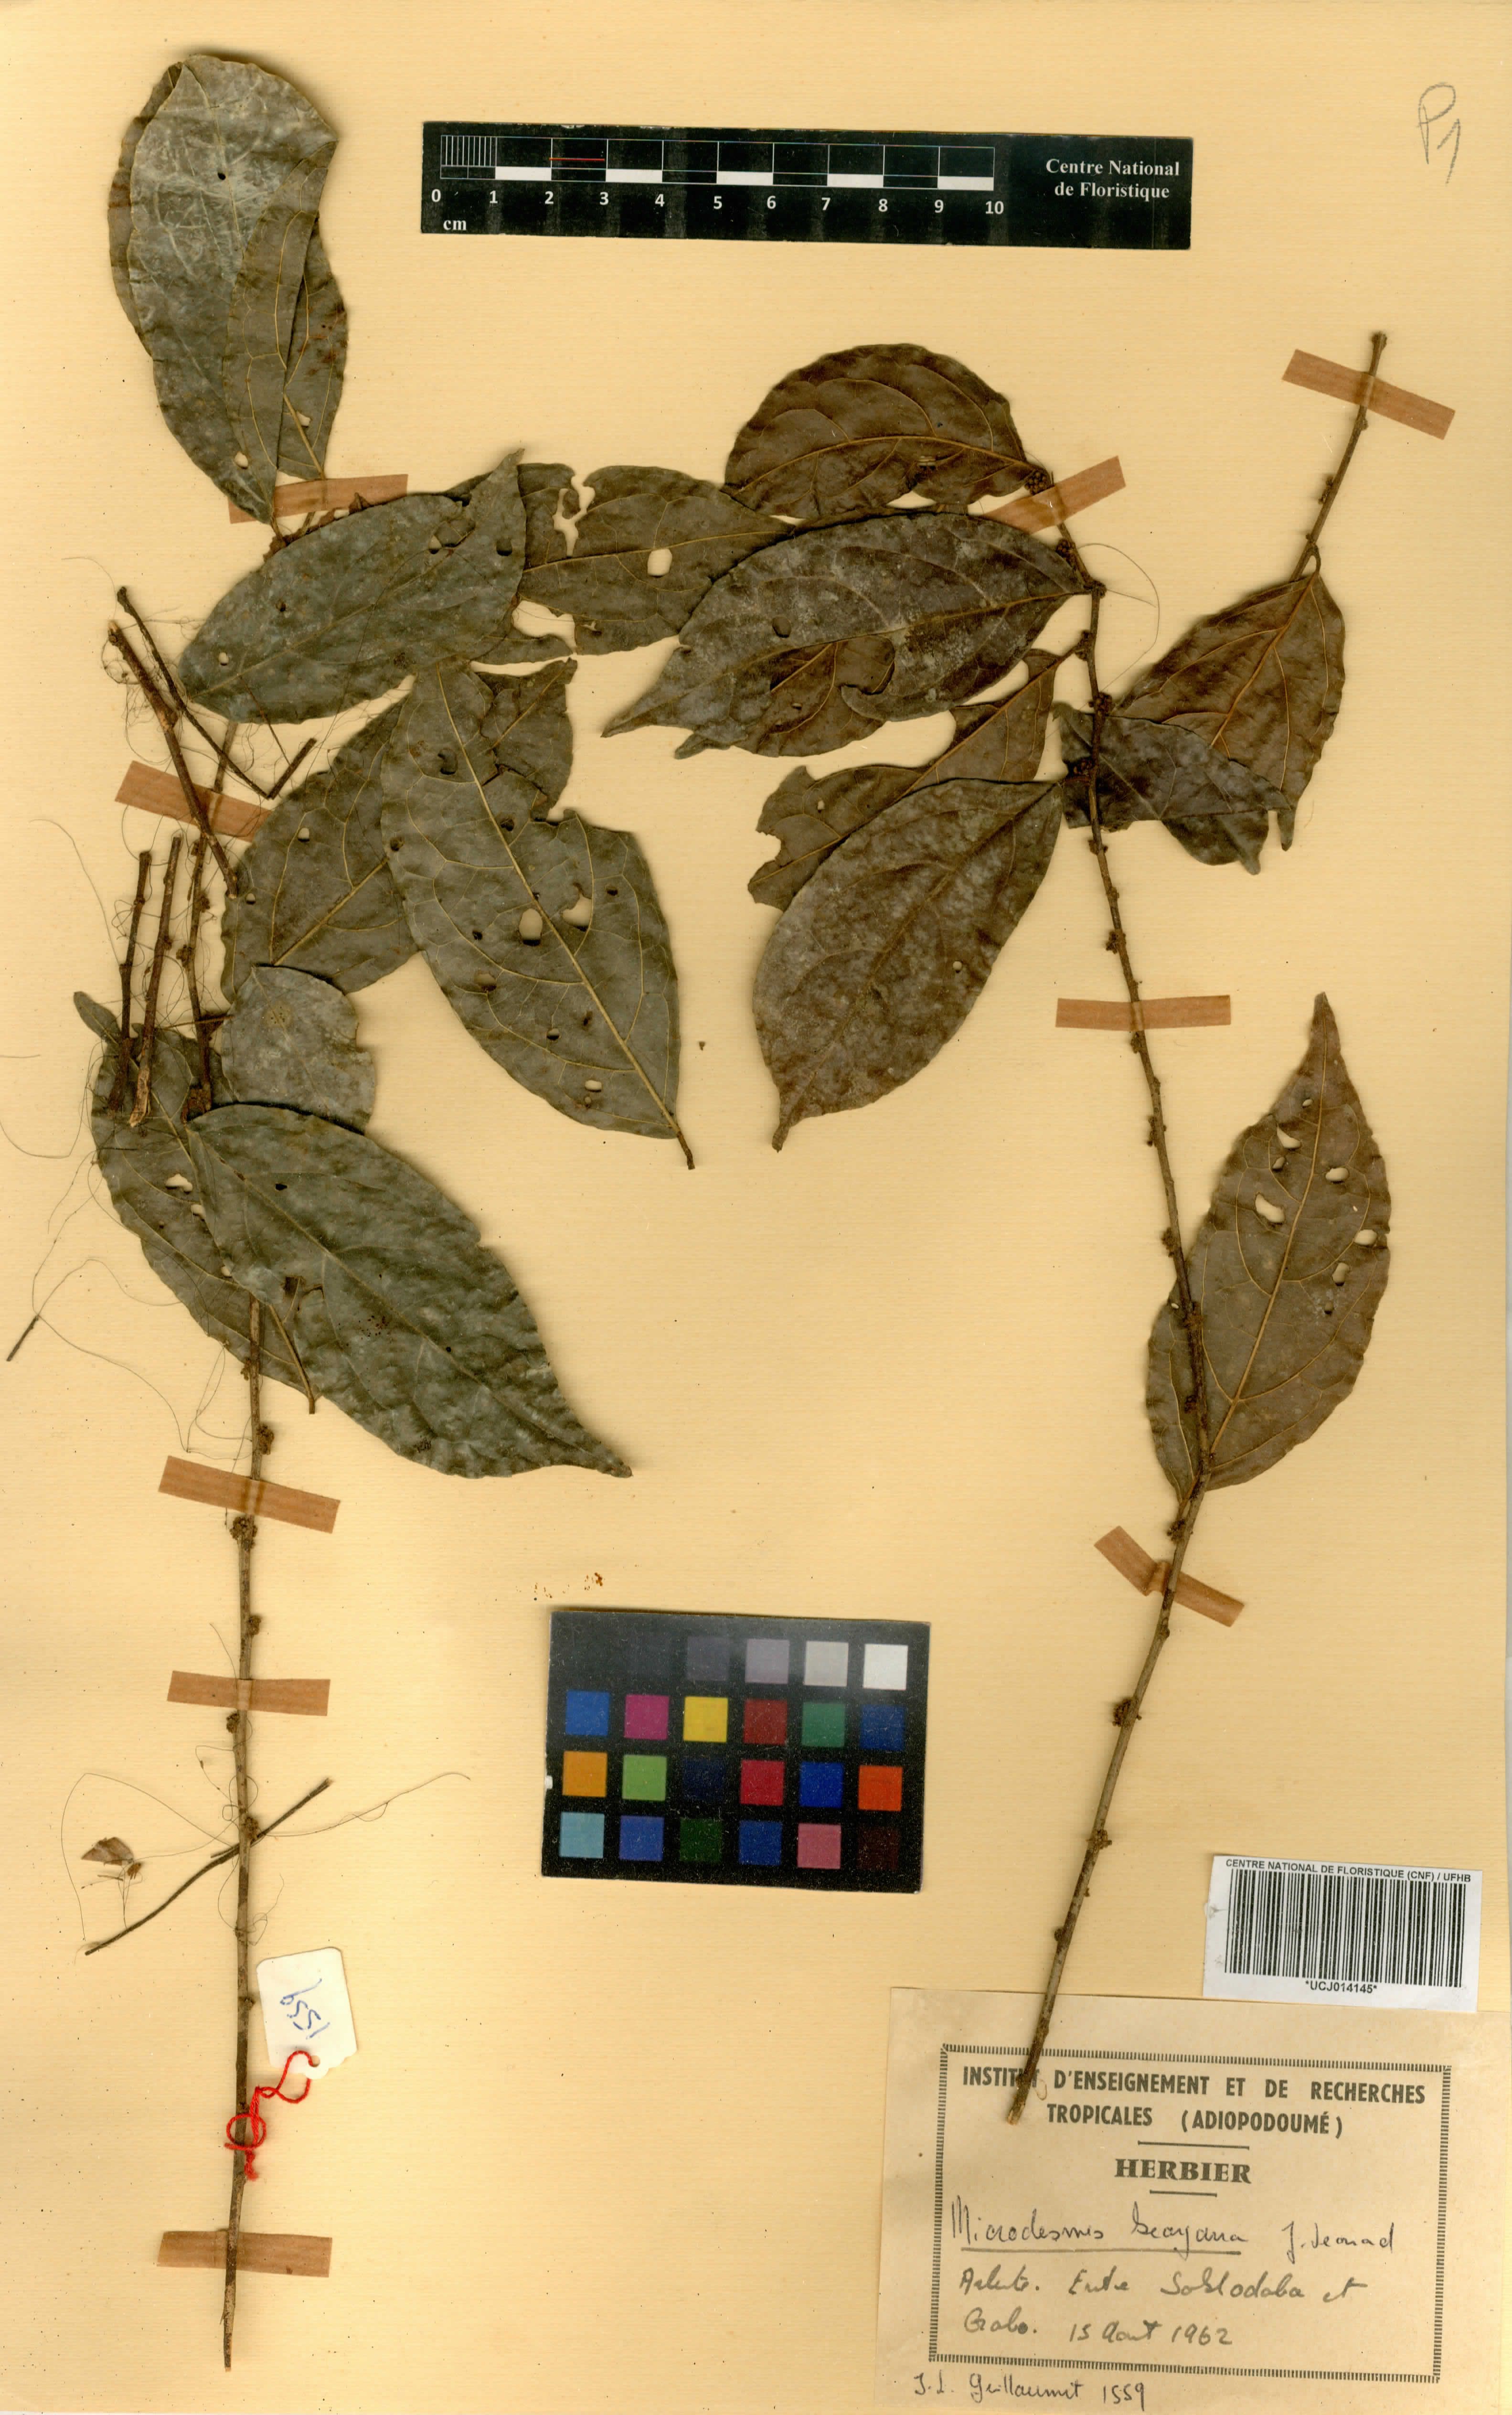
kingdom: Plantae
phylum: Tracheophyta
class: Magnoliopsida
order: Malpighiales
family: Pandaceae
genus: Microdesmis
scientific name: Microdesmis keayana
